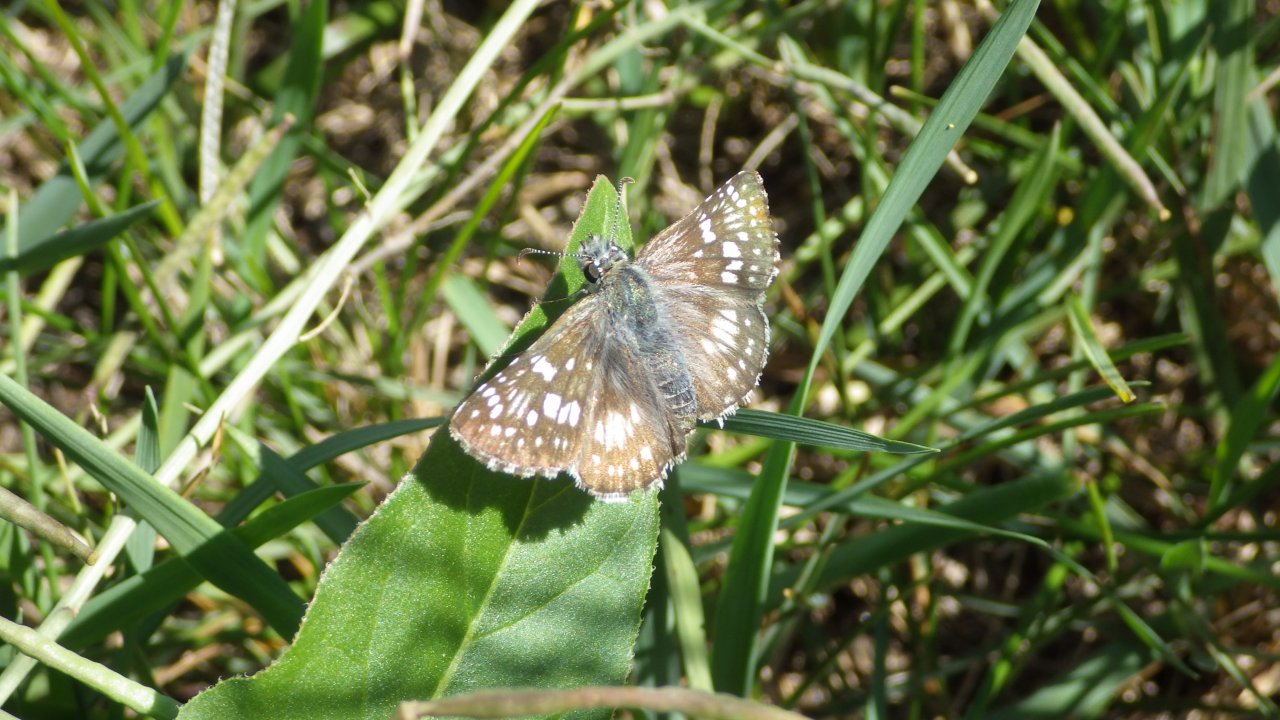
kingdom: Animalia
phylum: Arthropoda
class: Insecta
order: Lepidoptera
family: Hesperiidae
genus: Pyrgus
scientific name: Pyrgus communis
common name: Common Checkered-Skipper
